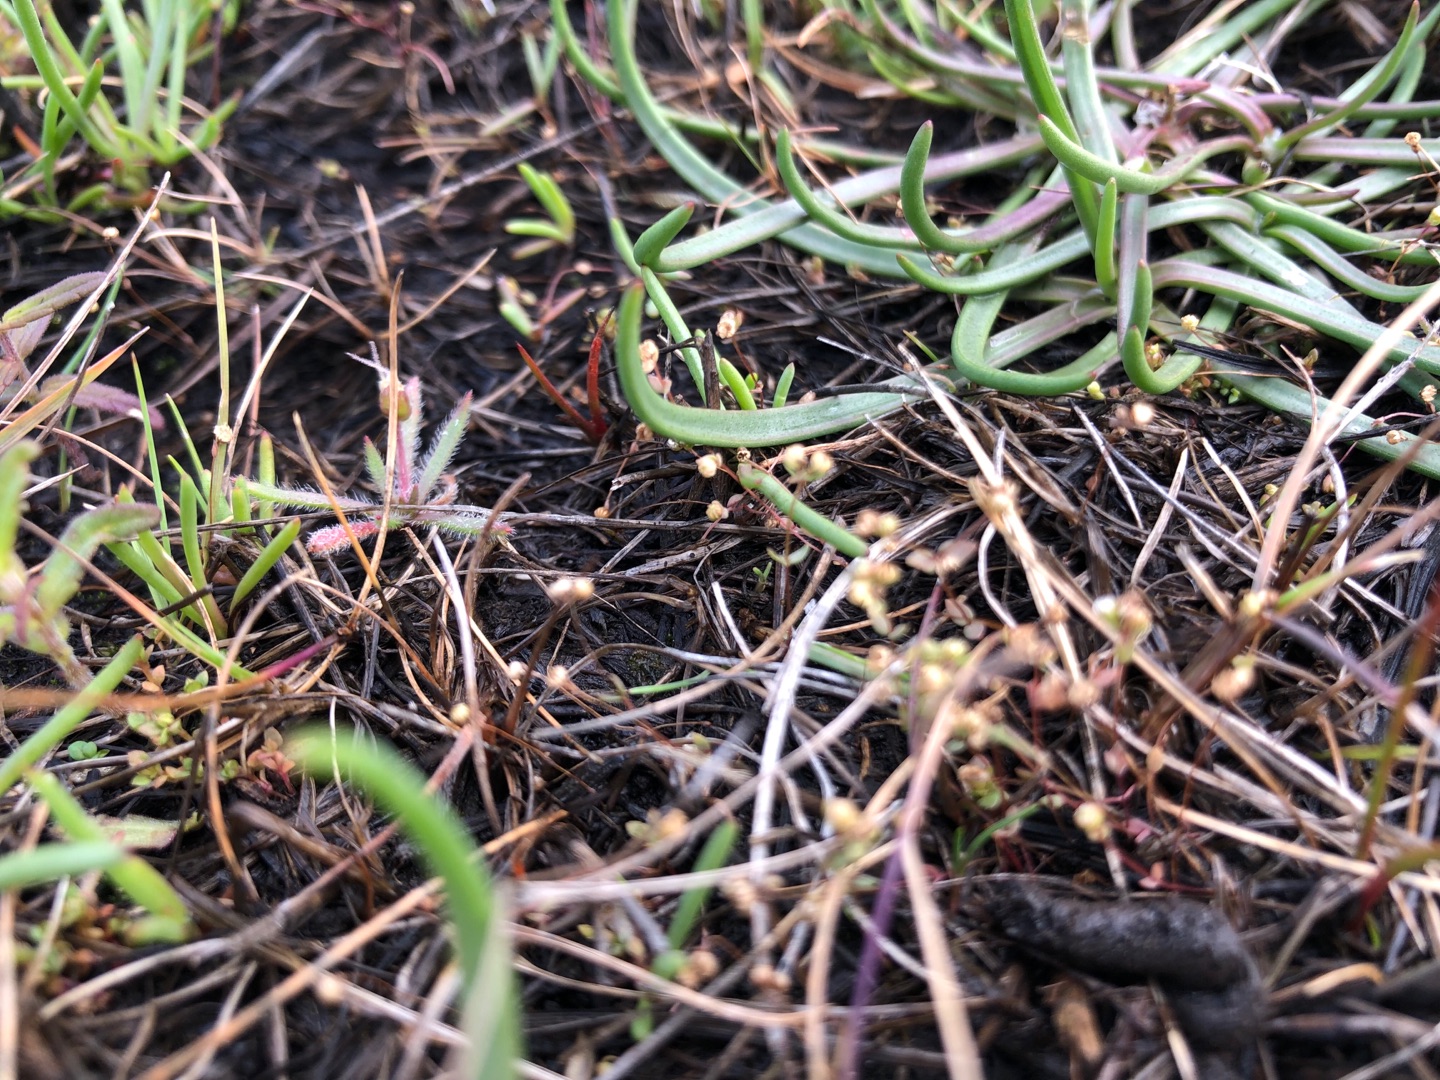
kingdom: Plantae
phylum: Tracheophyta
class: Magnoliopsida
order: Malpighiales
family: Linaceae
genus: Radiola
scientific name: Radiola linoides
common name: Tusindfrø
